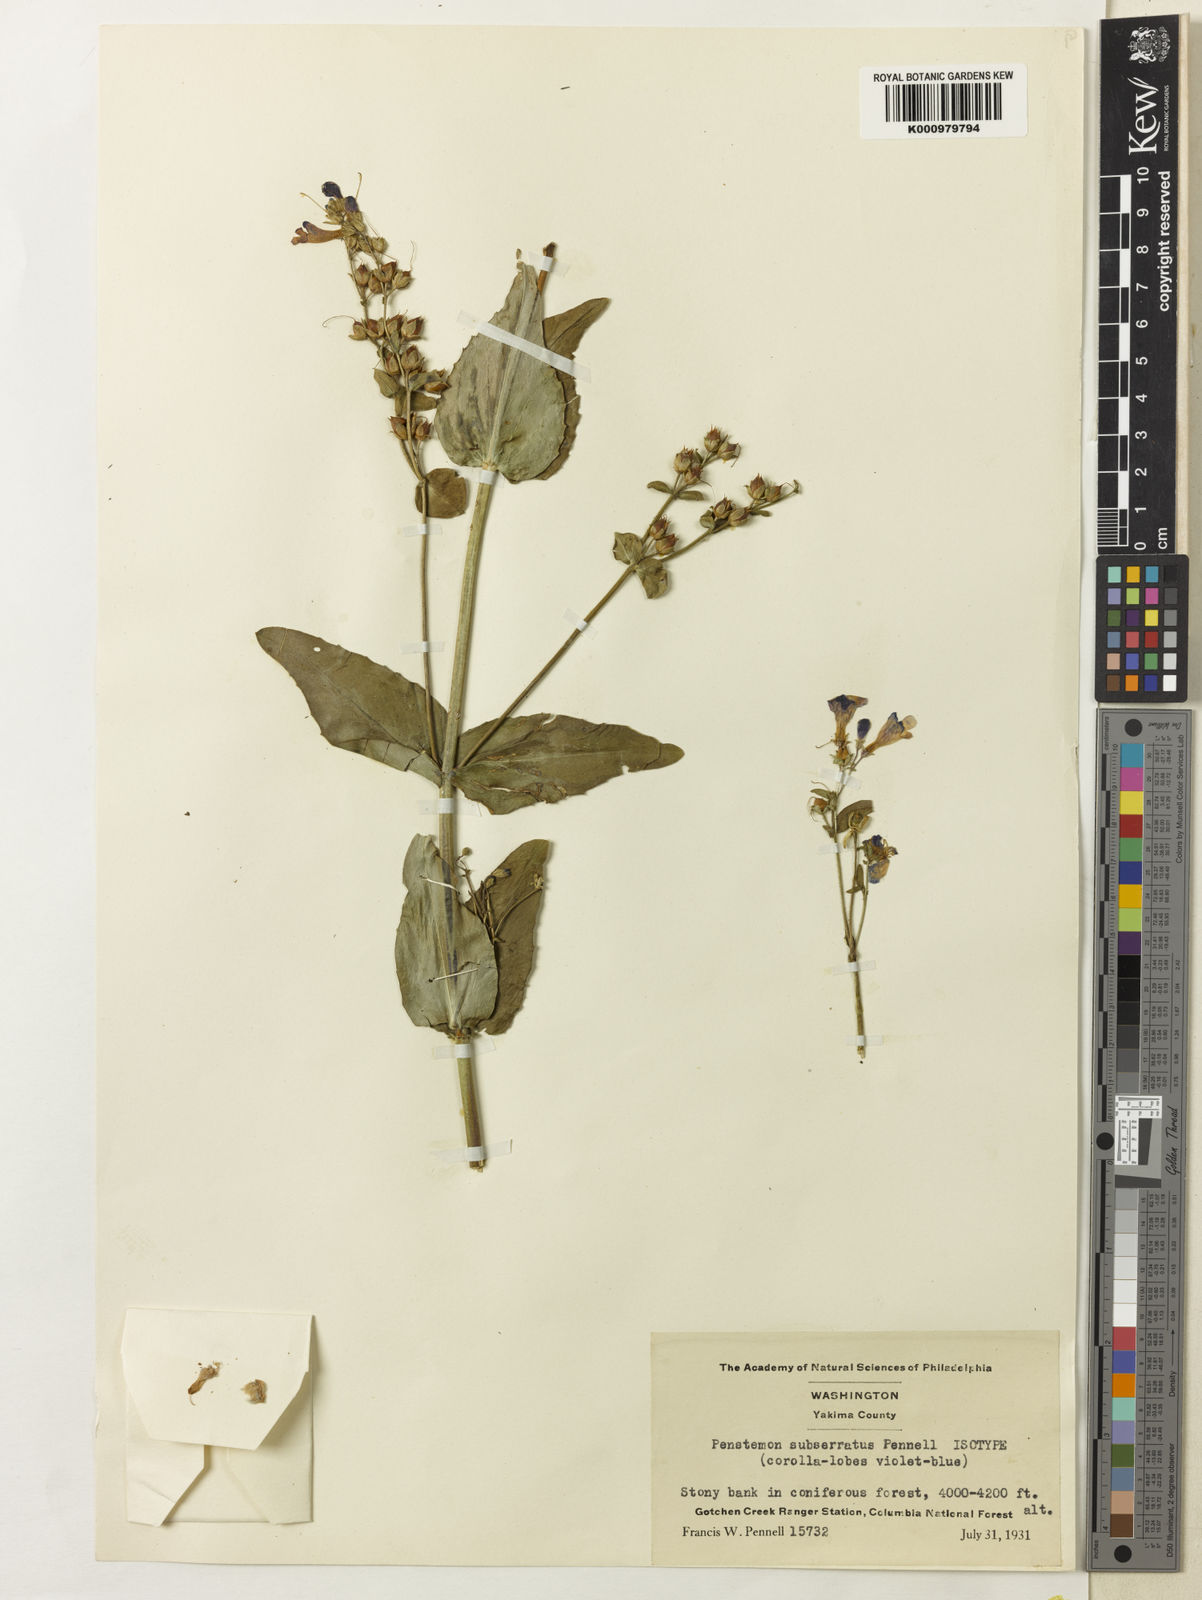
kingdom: Plantae
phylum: Tracheophyta
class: Magnoliopsida
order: Lamiales
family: Plantaginaceae
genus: Penstemon
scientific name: Penstemon
